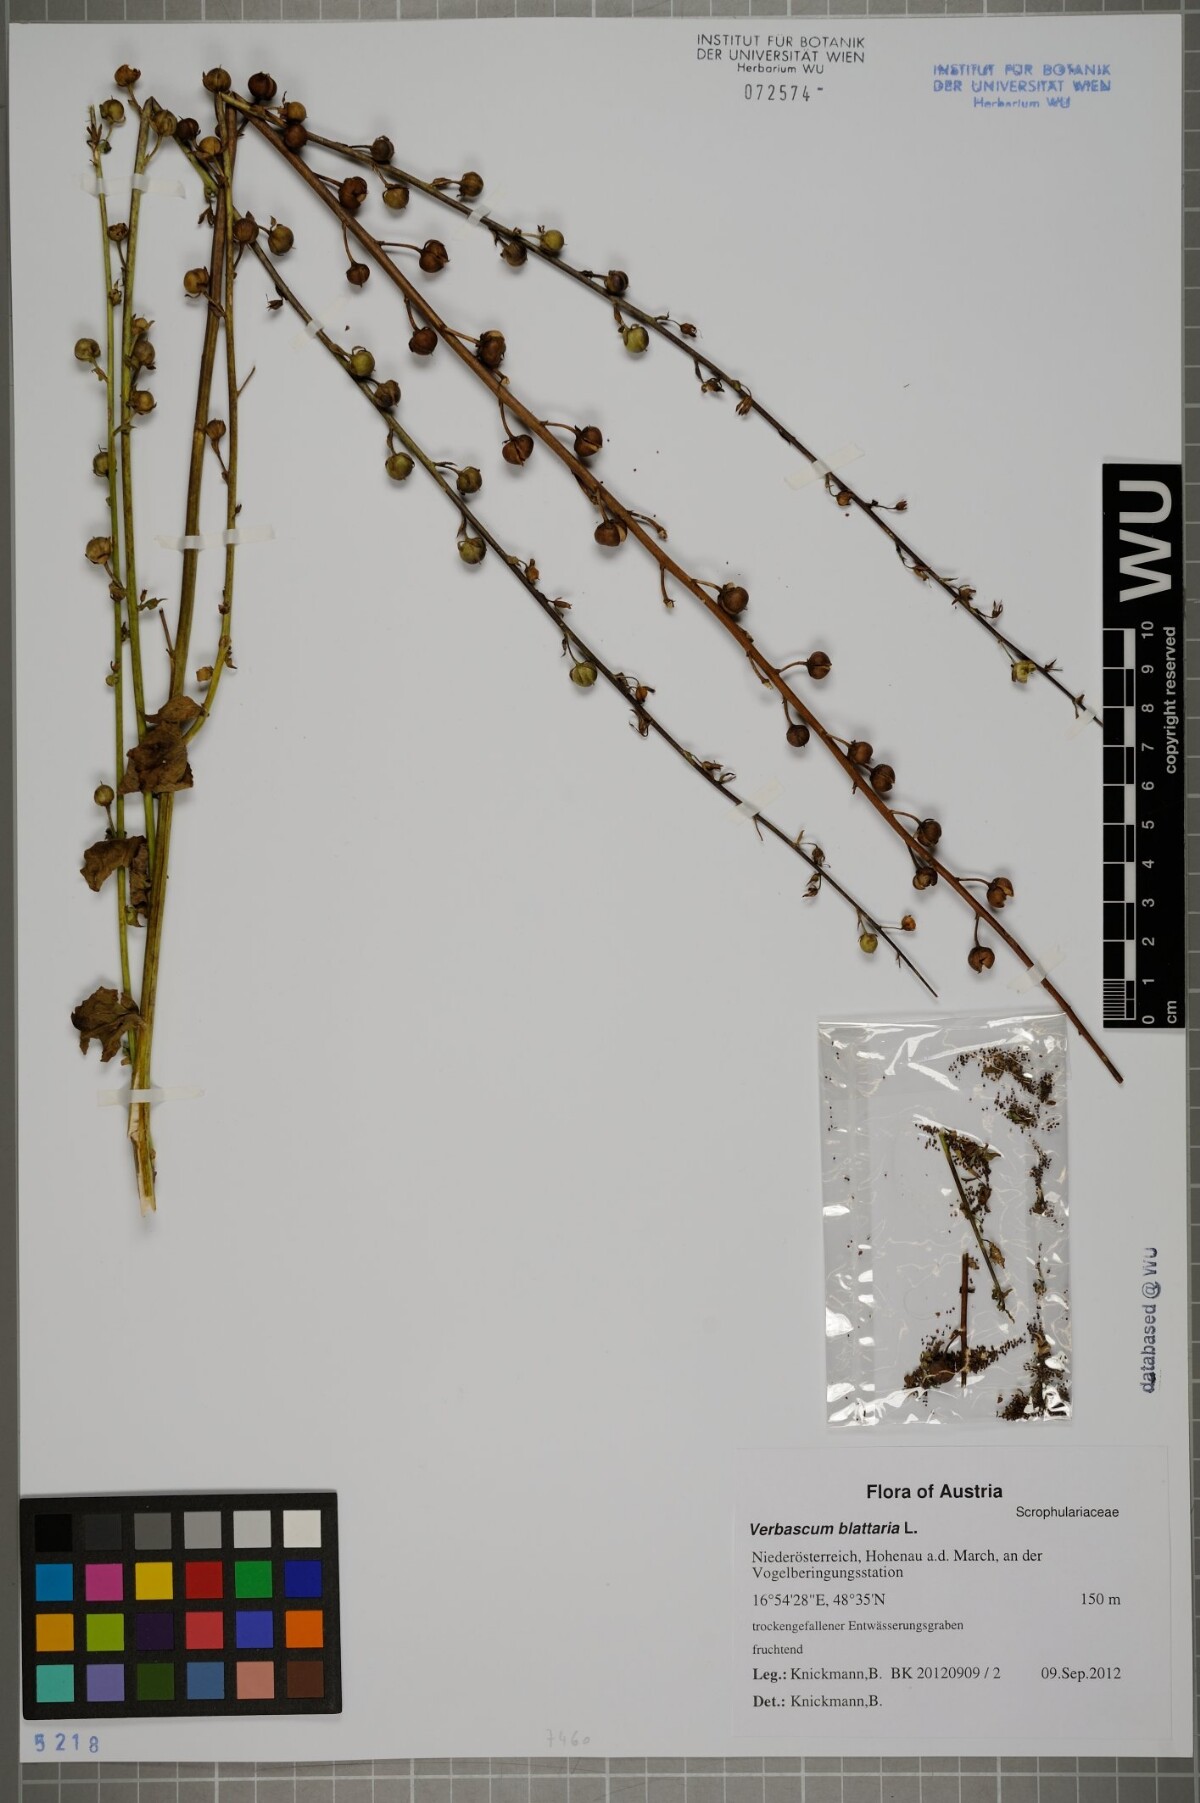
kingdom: Plantae
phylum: Tracheophyta
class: Magnoliopsida
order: Lamiales
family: Scrophulariaceae
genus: Verbascum
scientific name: Verbascum blattaria
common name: Moth mullein
